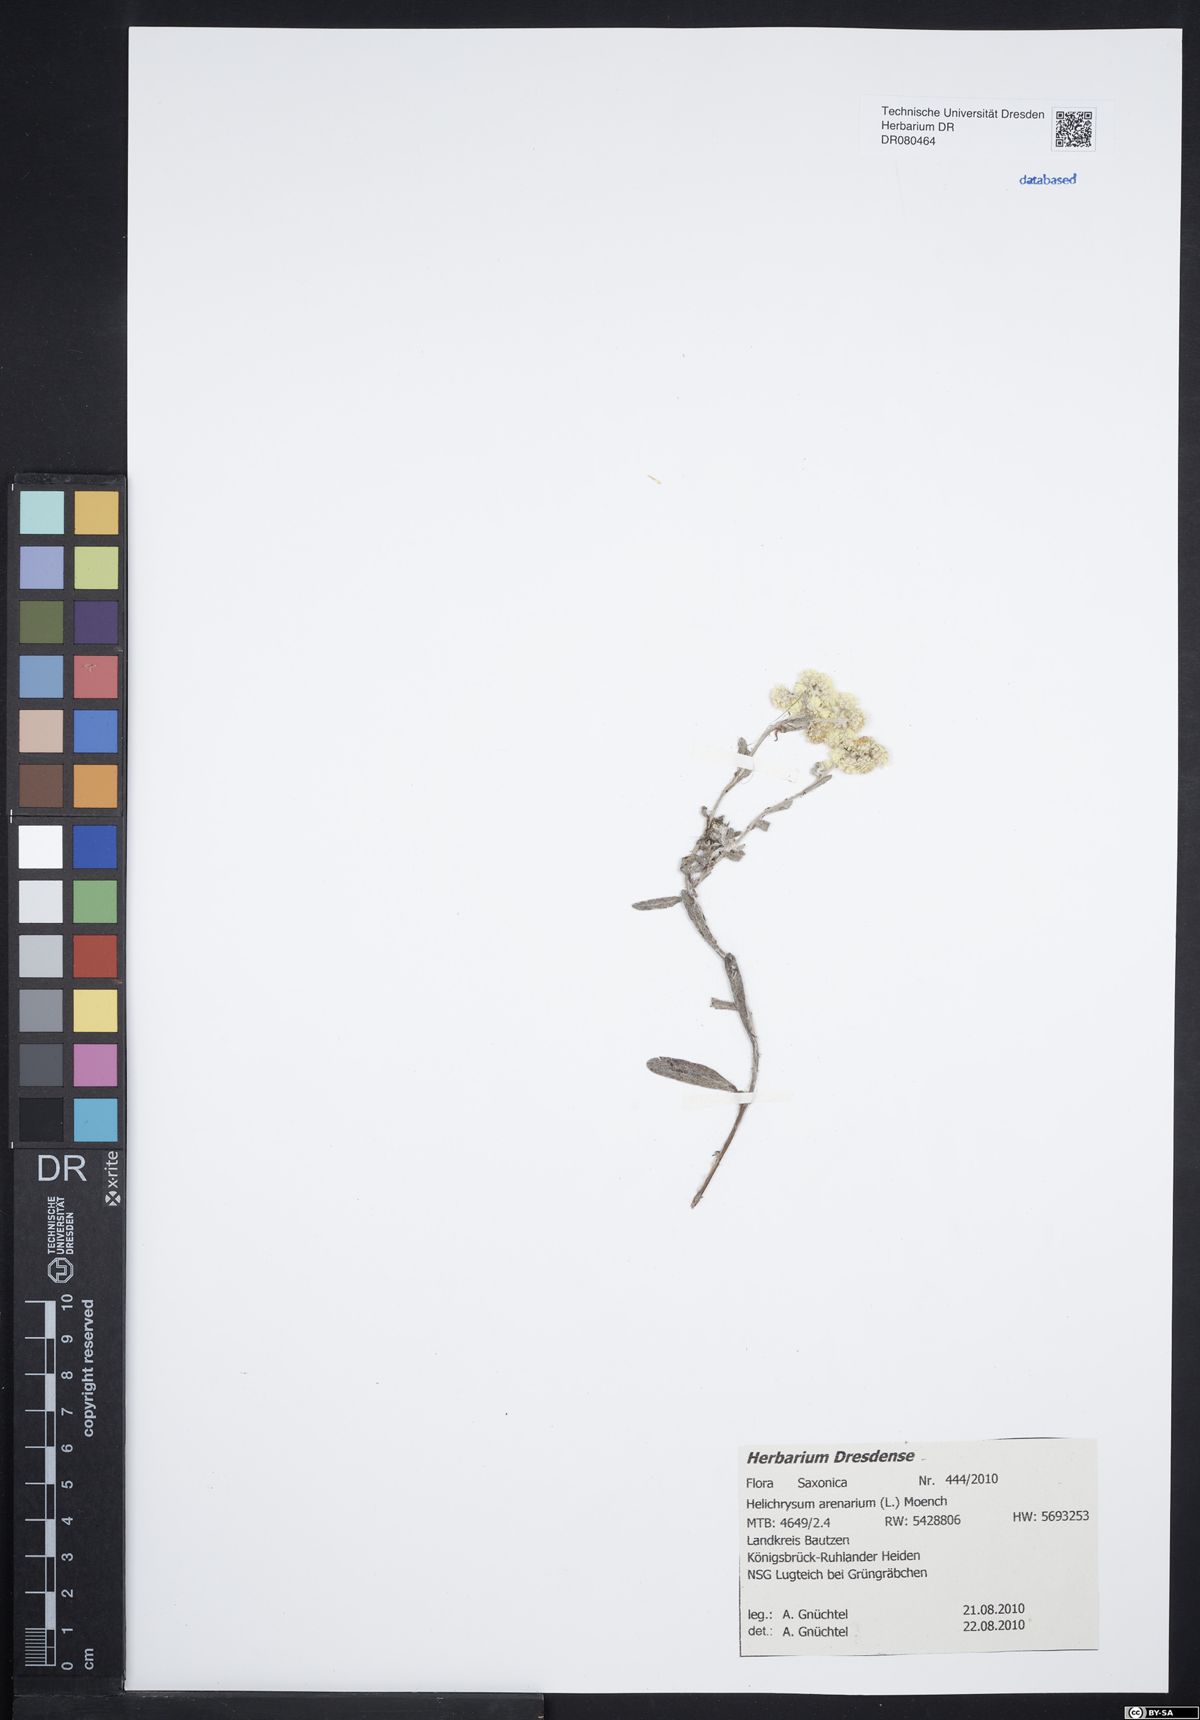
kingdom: Plantae
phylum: Tracheophyta
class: Magnoliopsida
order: Asterales
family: Asteraceae
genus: Helichrysum
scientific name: Helichrysum arenarium
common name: Strawflower
